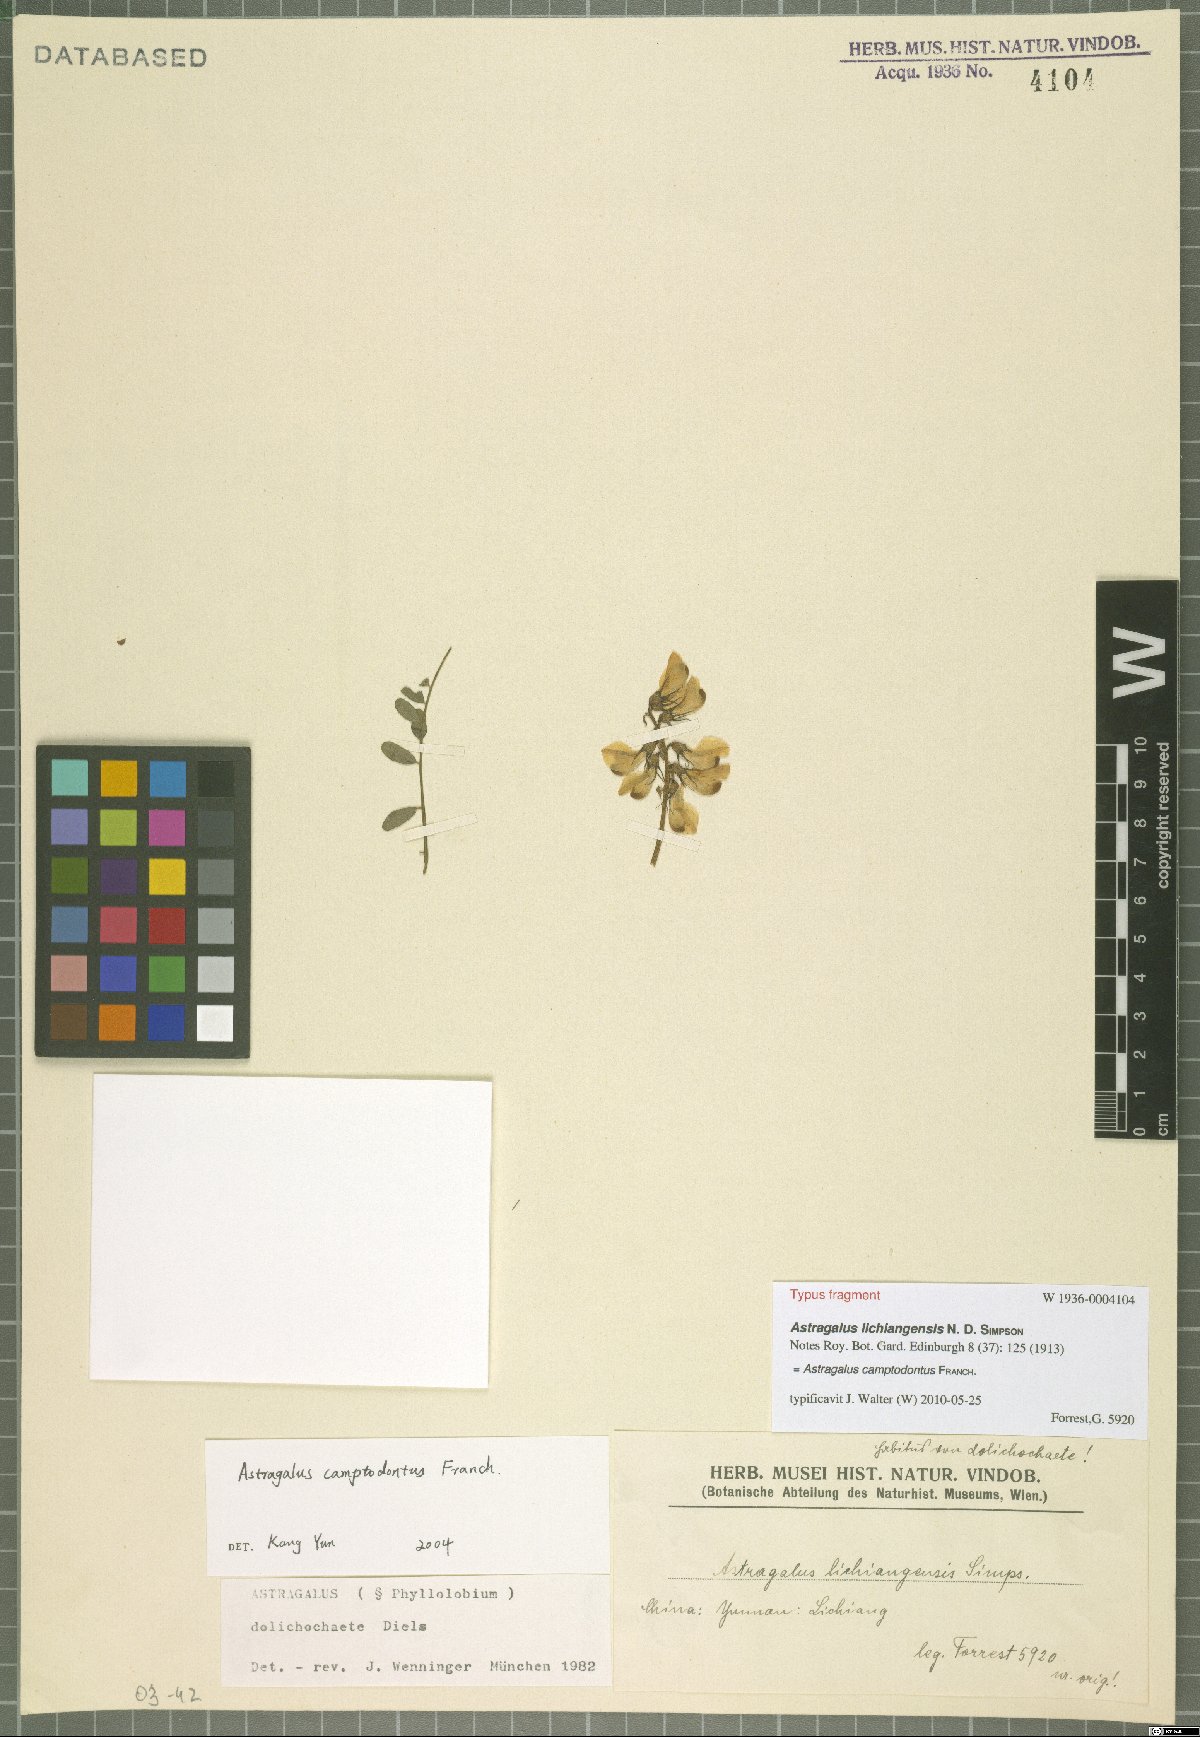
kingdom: Plantae
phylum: Tracheophyta
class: Magnoliopsida
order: Fabales
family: Fabaceae
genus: Phyllolobium
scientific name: Phyllolobium camptodontum
